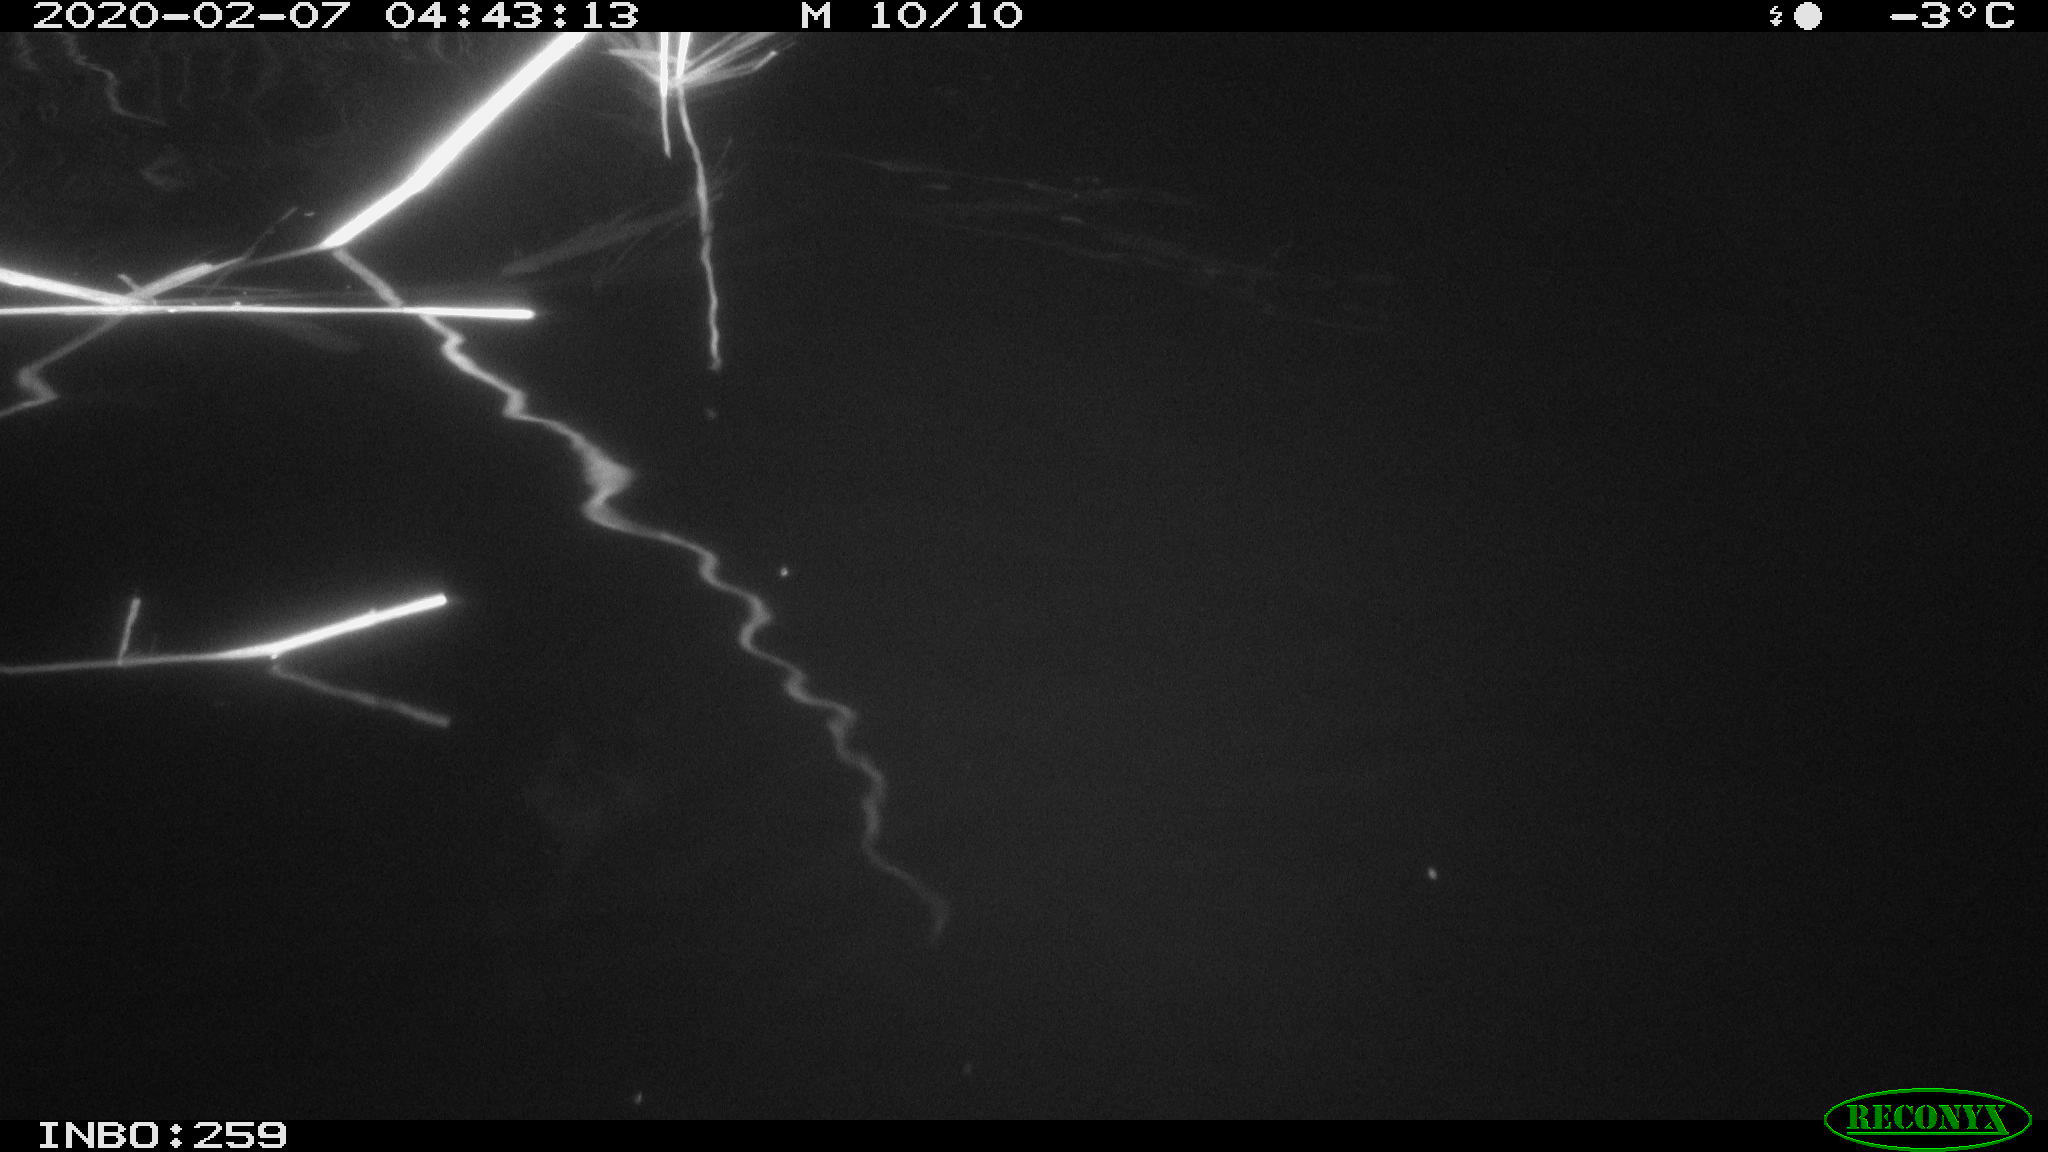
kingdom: Animalia
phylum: Chordata
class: Mammalia
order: Rodentia
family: Cricetidae
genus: Ondatra
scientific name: Ondatra zibethicus
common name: Muskrat
